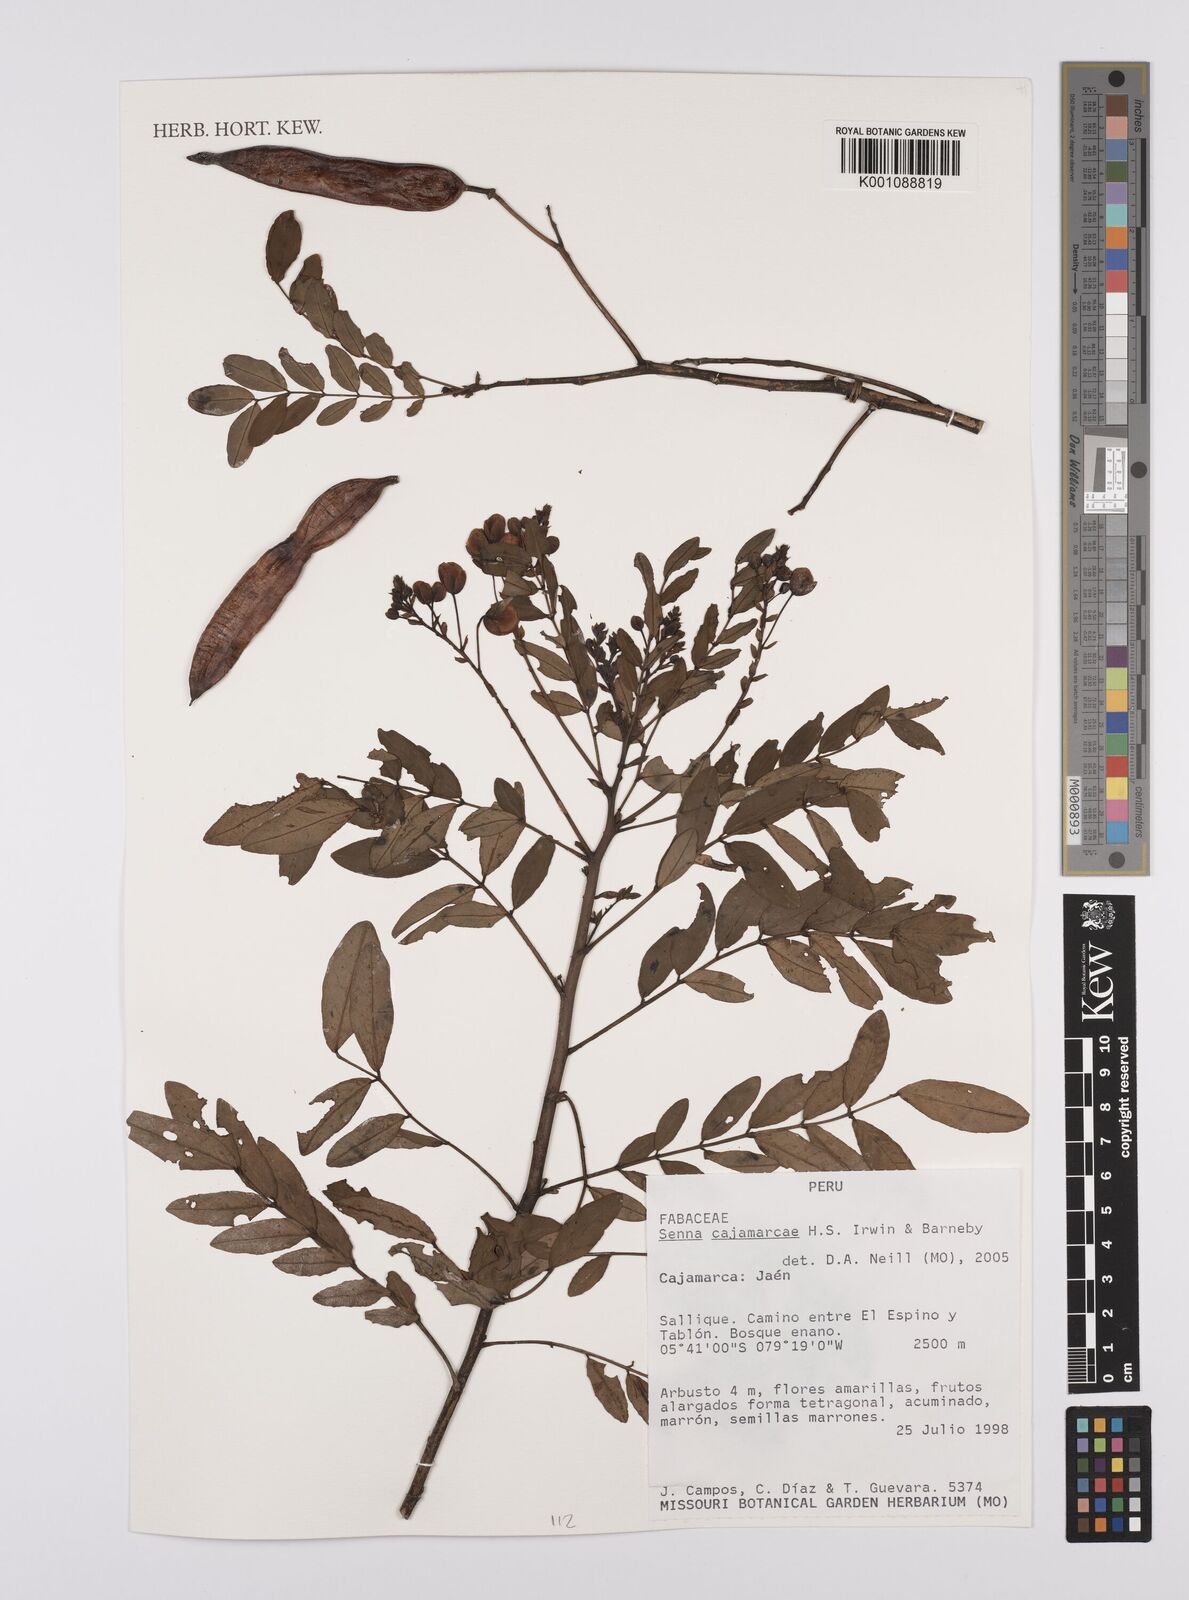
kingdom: Plantae
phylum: Tracheophyta
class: Magnoliopsida
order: Fabales
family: Fabaceae
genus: Senna
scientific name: Senna cajamarcae
